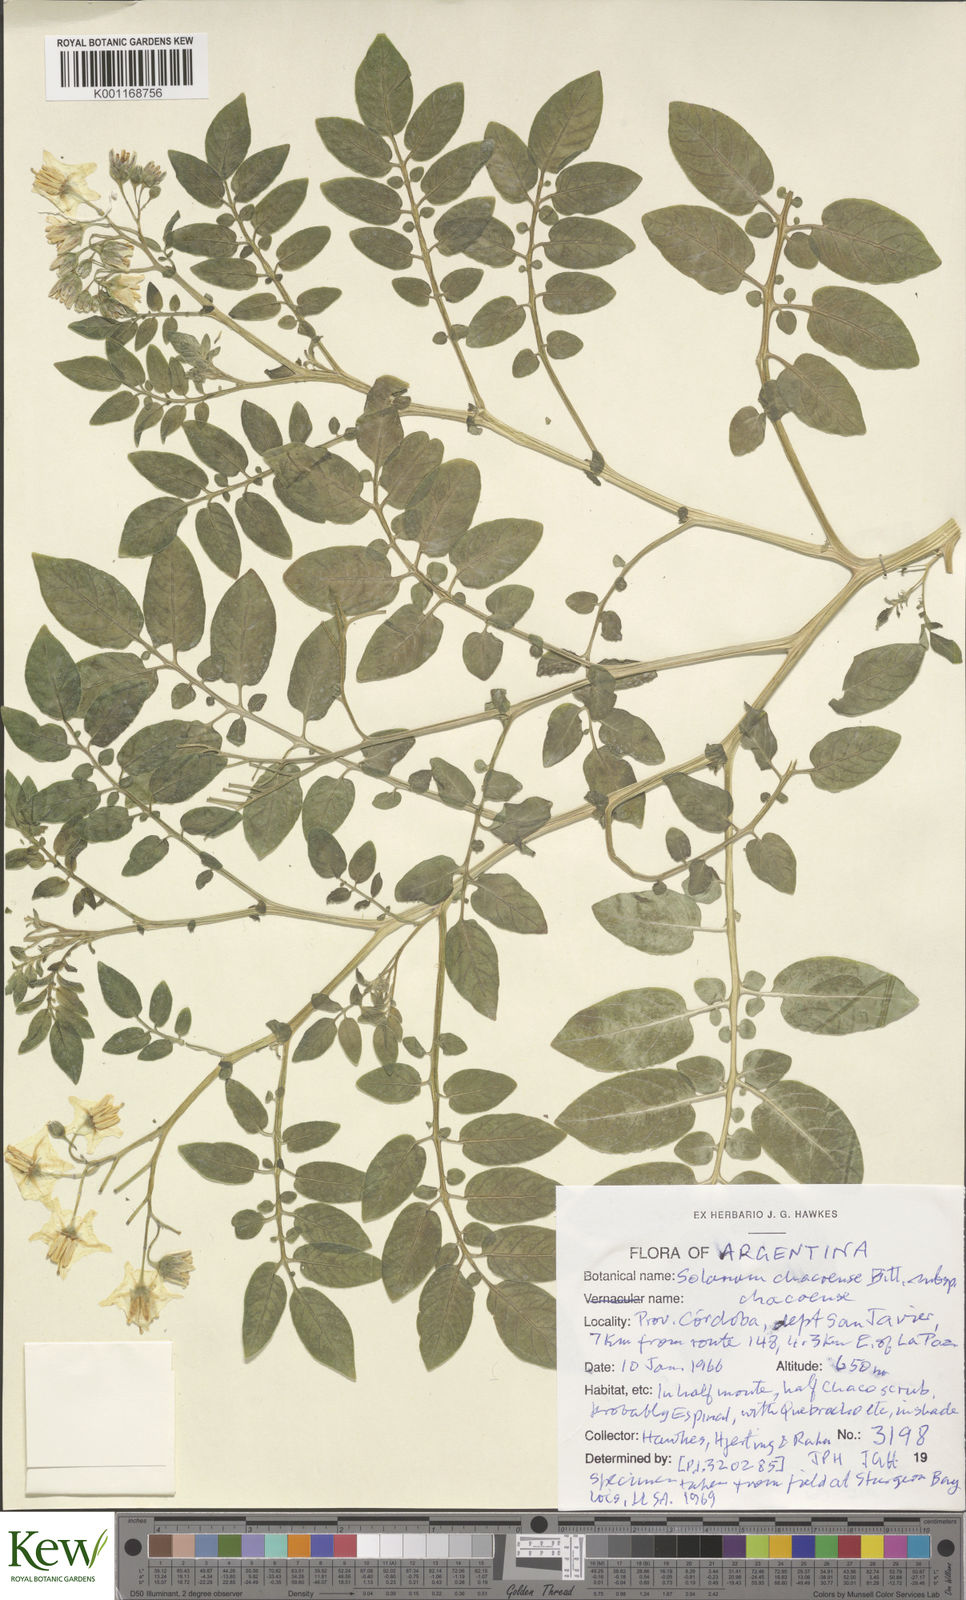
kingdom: Plantae
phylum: Tracheophyta
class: Magnoliopsida
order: Solanales
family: Solanaceae
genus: Solanum
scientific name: Solanum chacoense
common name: Chaco potato
